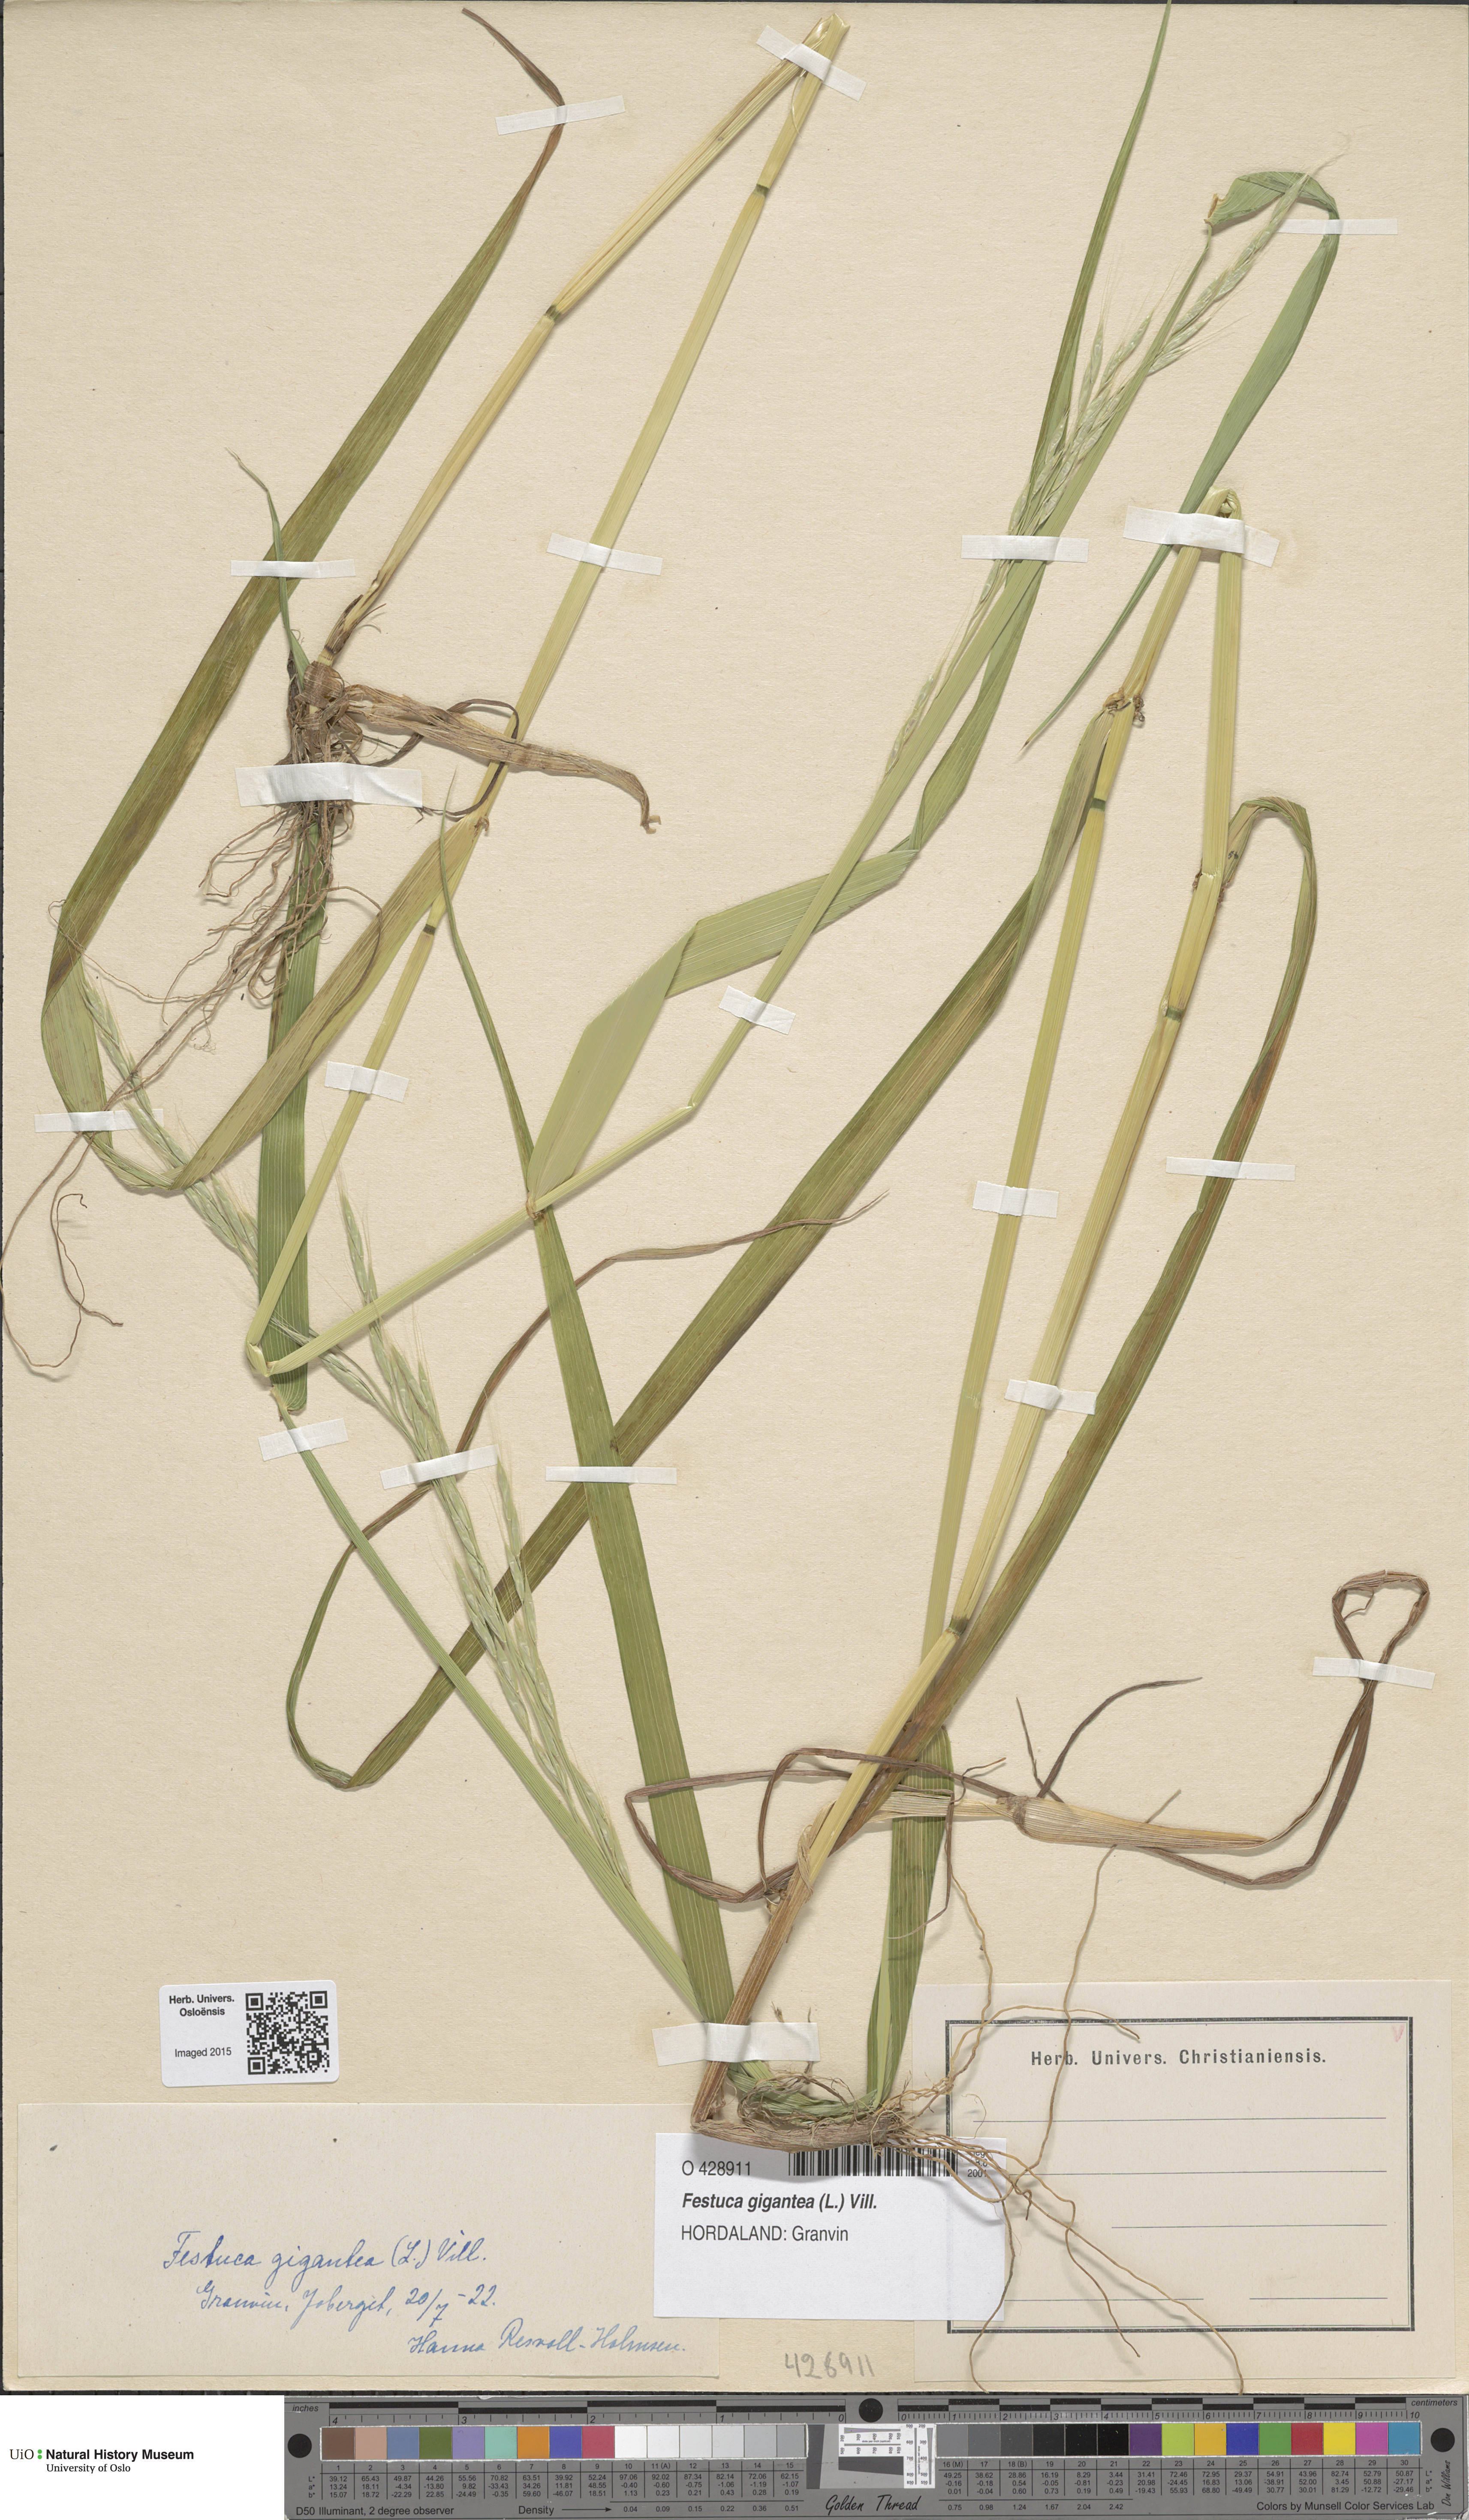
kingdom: Plantae
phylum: Tracheophyta
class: Liliopsida
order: Poales
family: Poaceae
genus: Lolium
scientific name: Lolium giganteum
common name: Giant fescue
